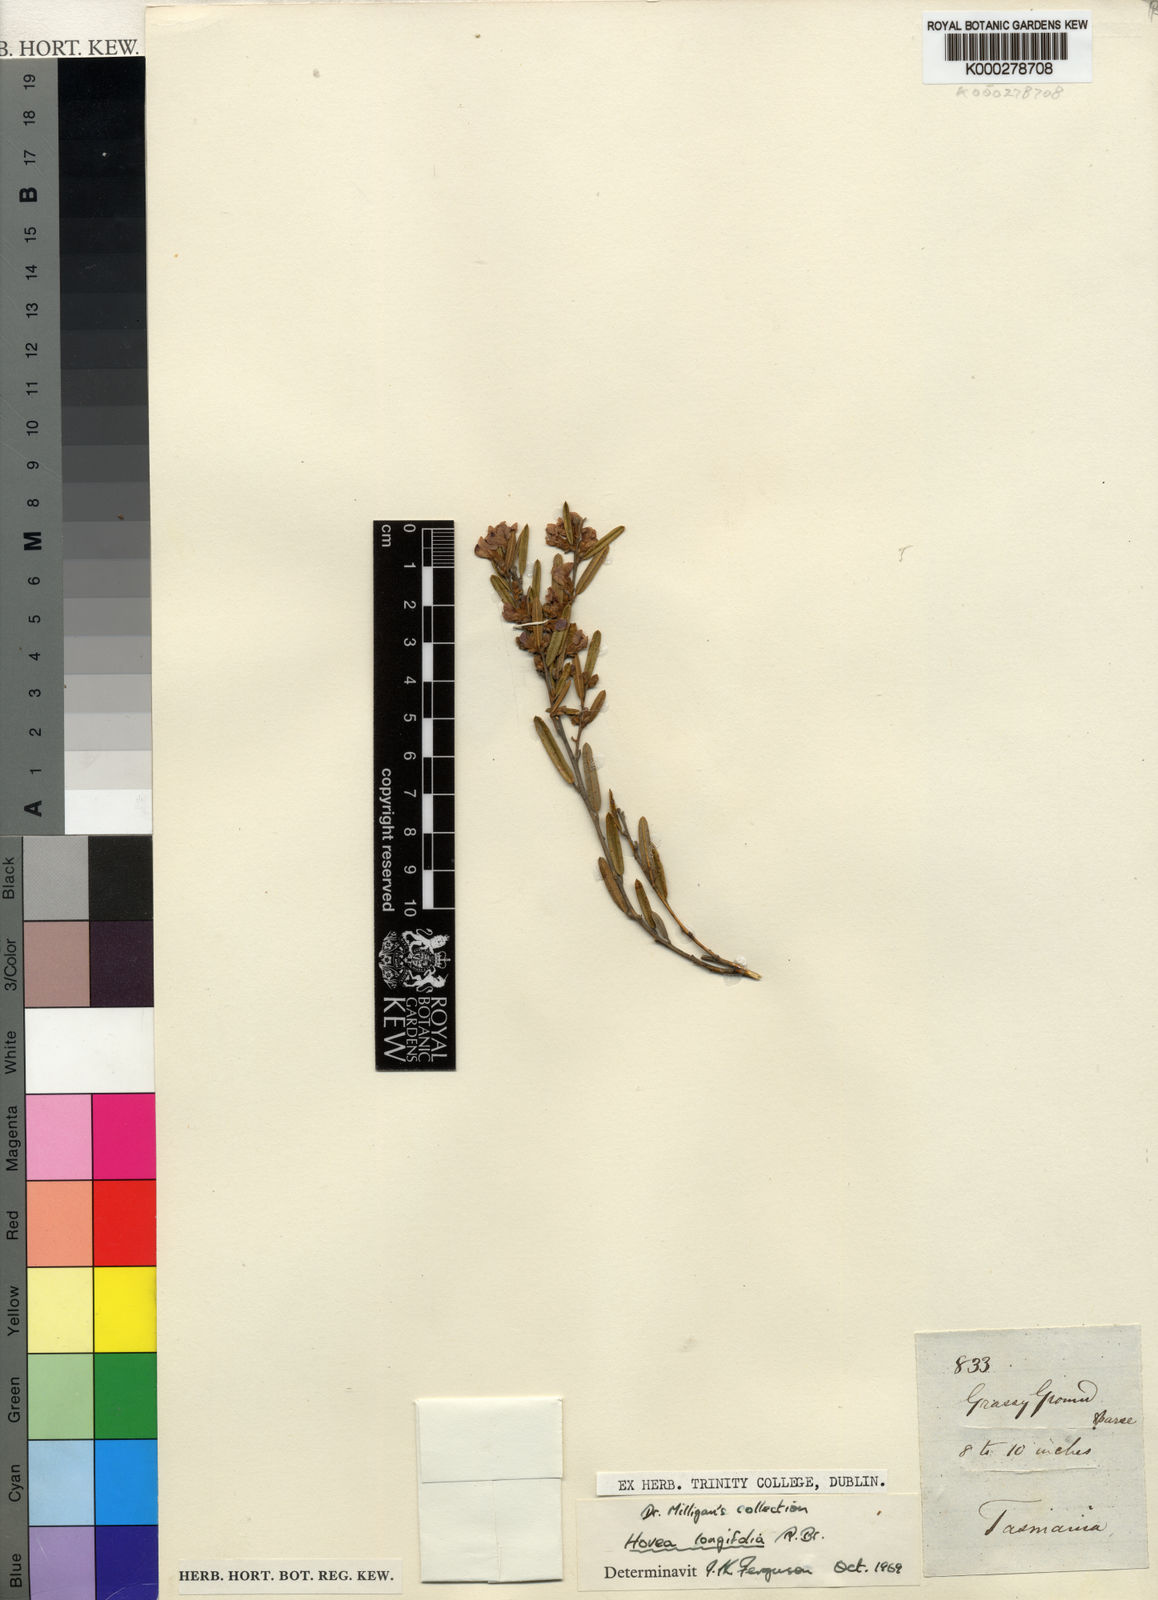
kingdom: Plantae
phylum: Tracheophyta
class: Magnoliopsida
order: Fabales
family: Fabaceae
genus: Hovea
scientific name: Hovea longifolia
